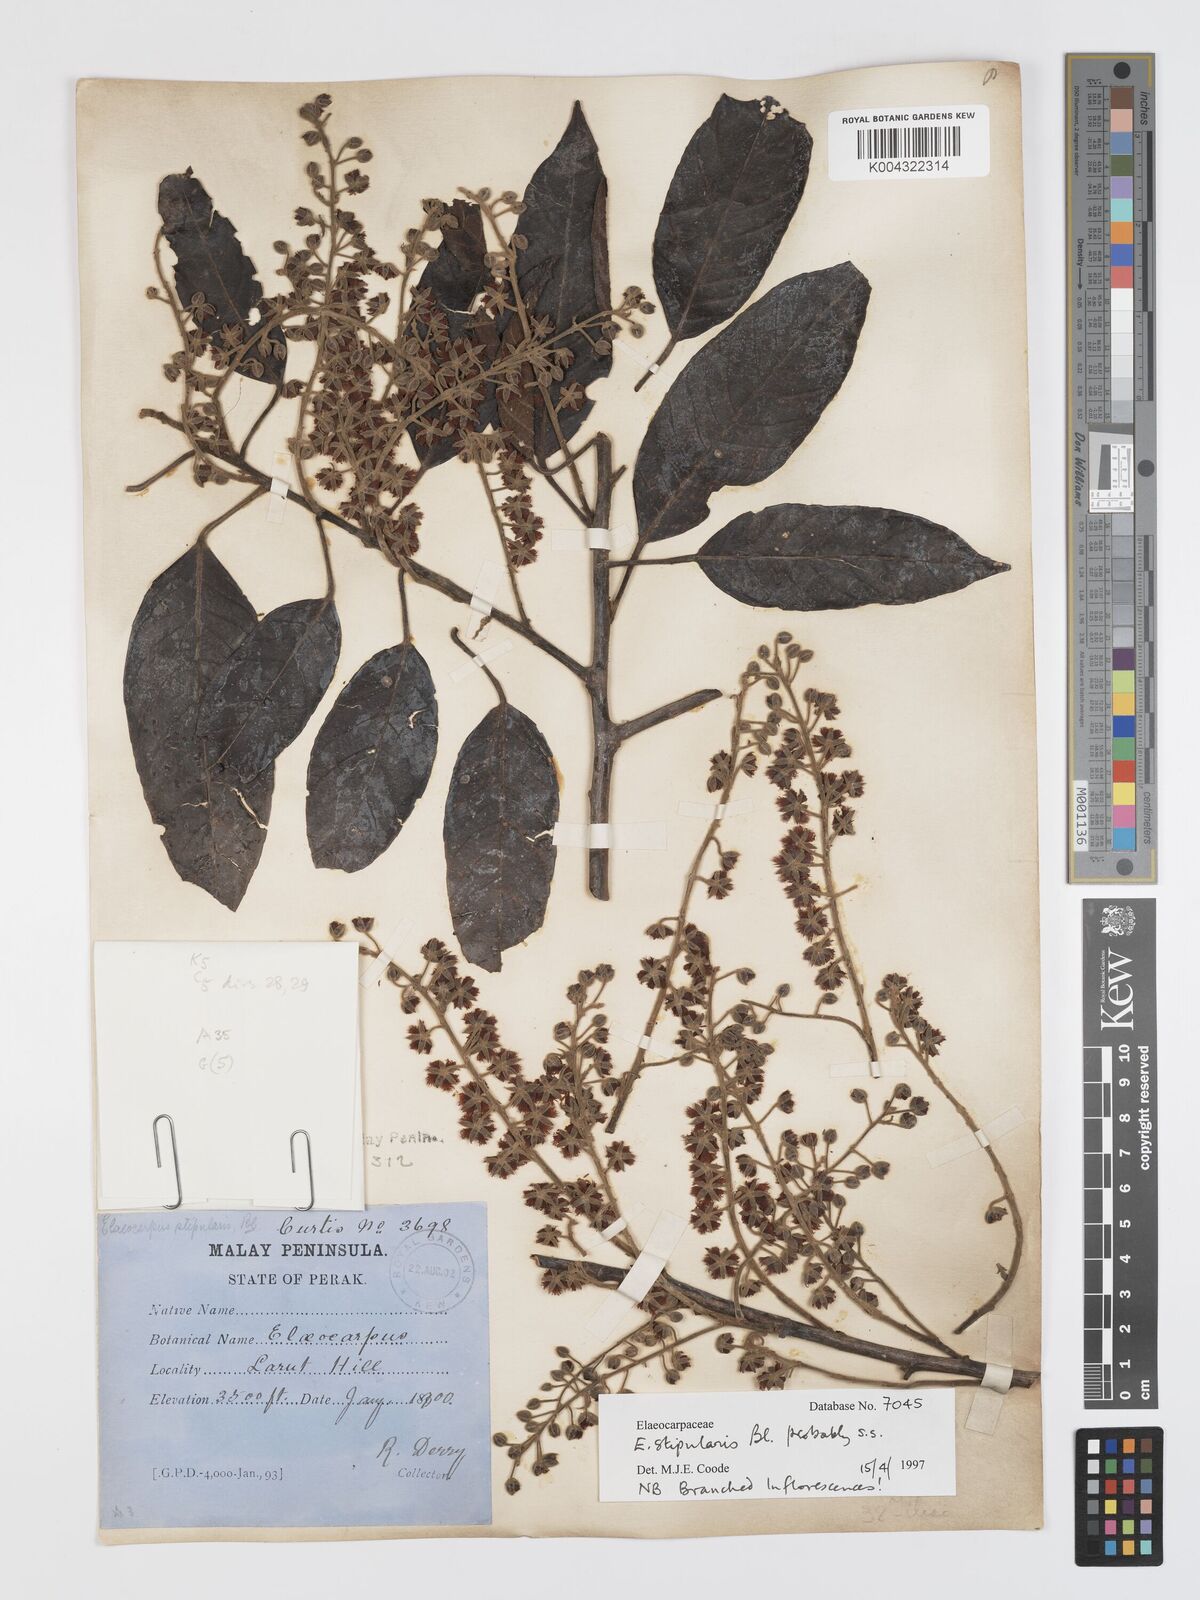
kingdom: Plantae
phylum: Tracheophyta
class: Magnoliopsida
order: Oxalidales
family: Elaeocarpaceae
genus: Elaeocarpus
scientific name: Elaeocarpus stipularis
